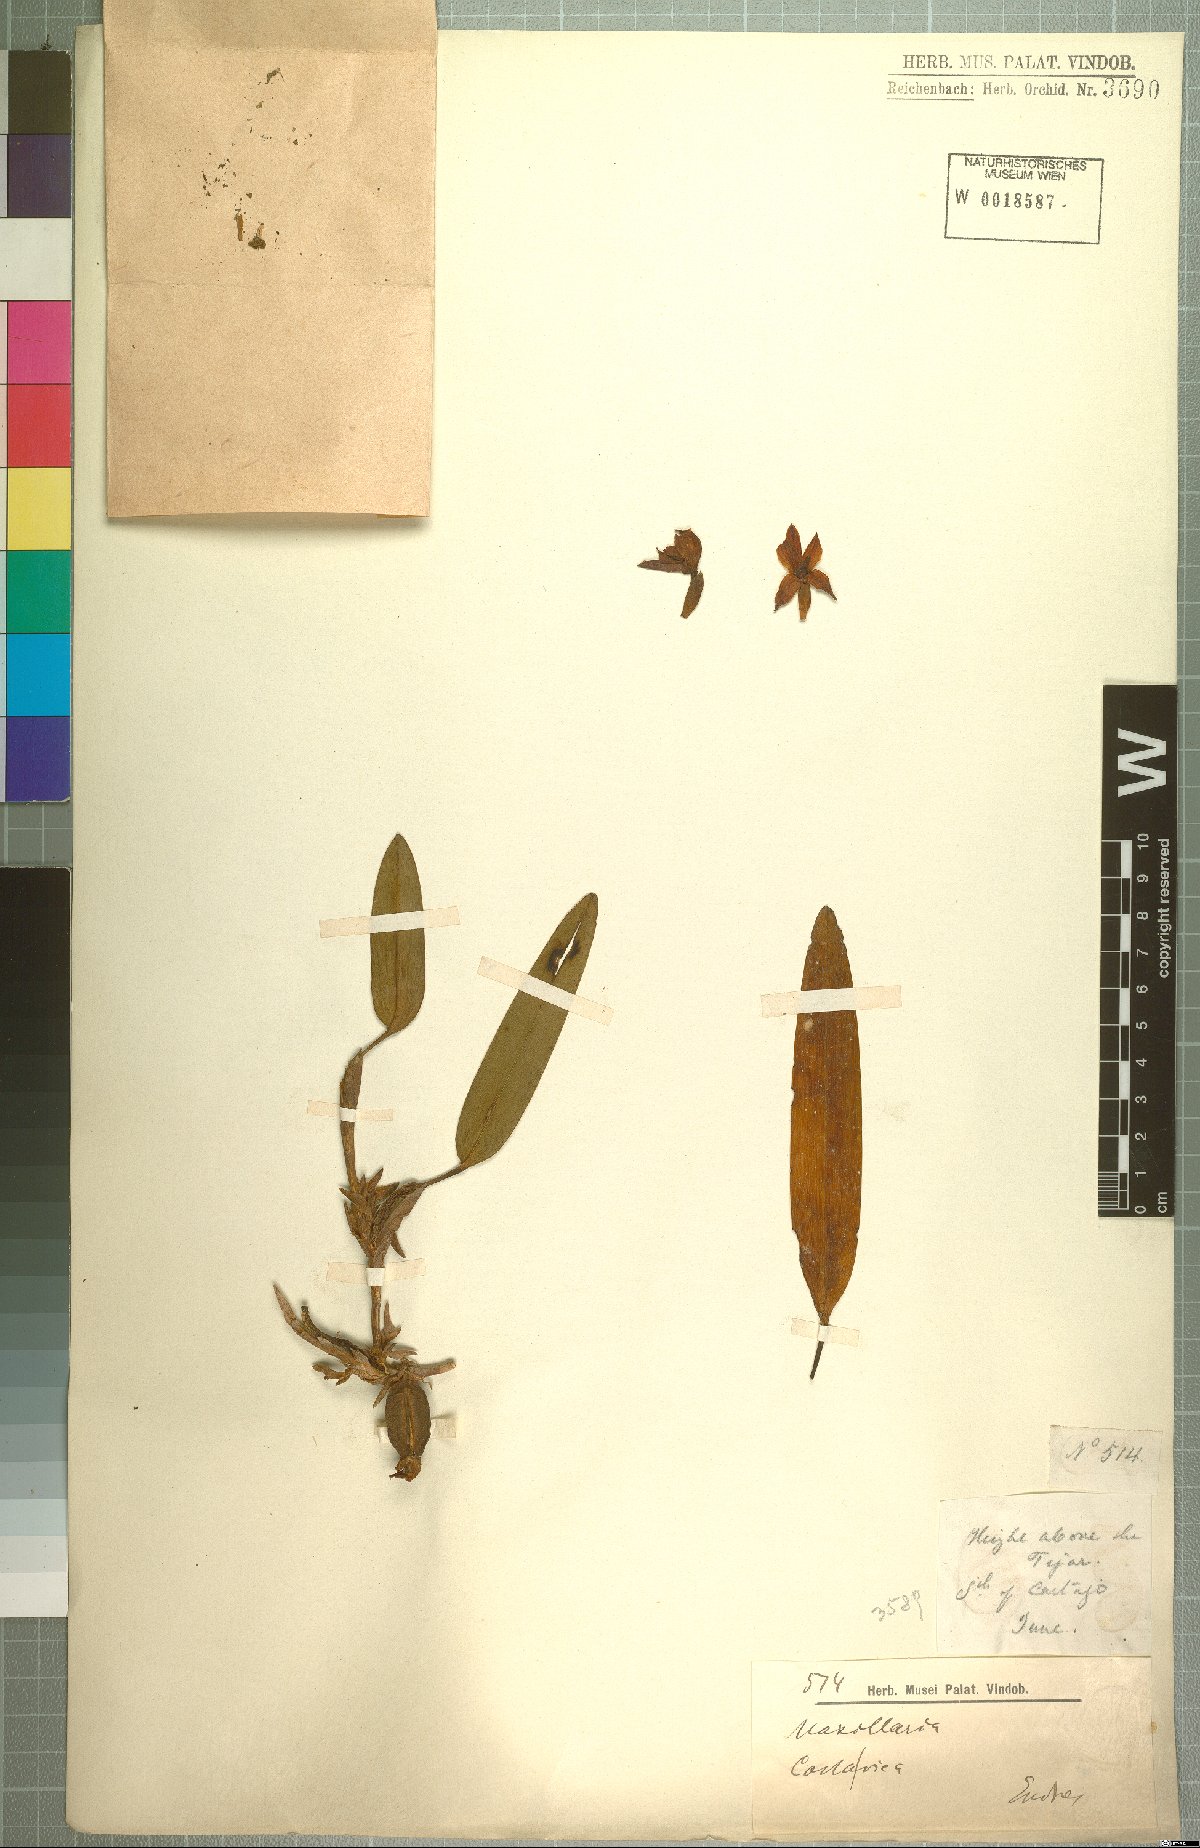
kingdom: Plantae
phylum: Tracheophyta
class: Liliopsida
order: Asparagales
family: Orchidaceae
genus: Maxillaria
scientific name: Maxillaria
